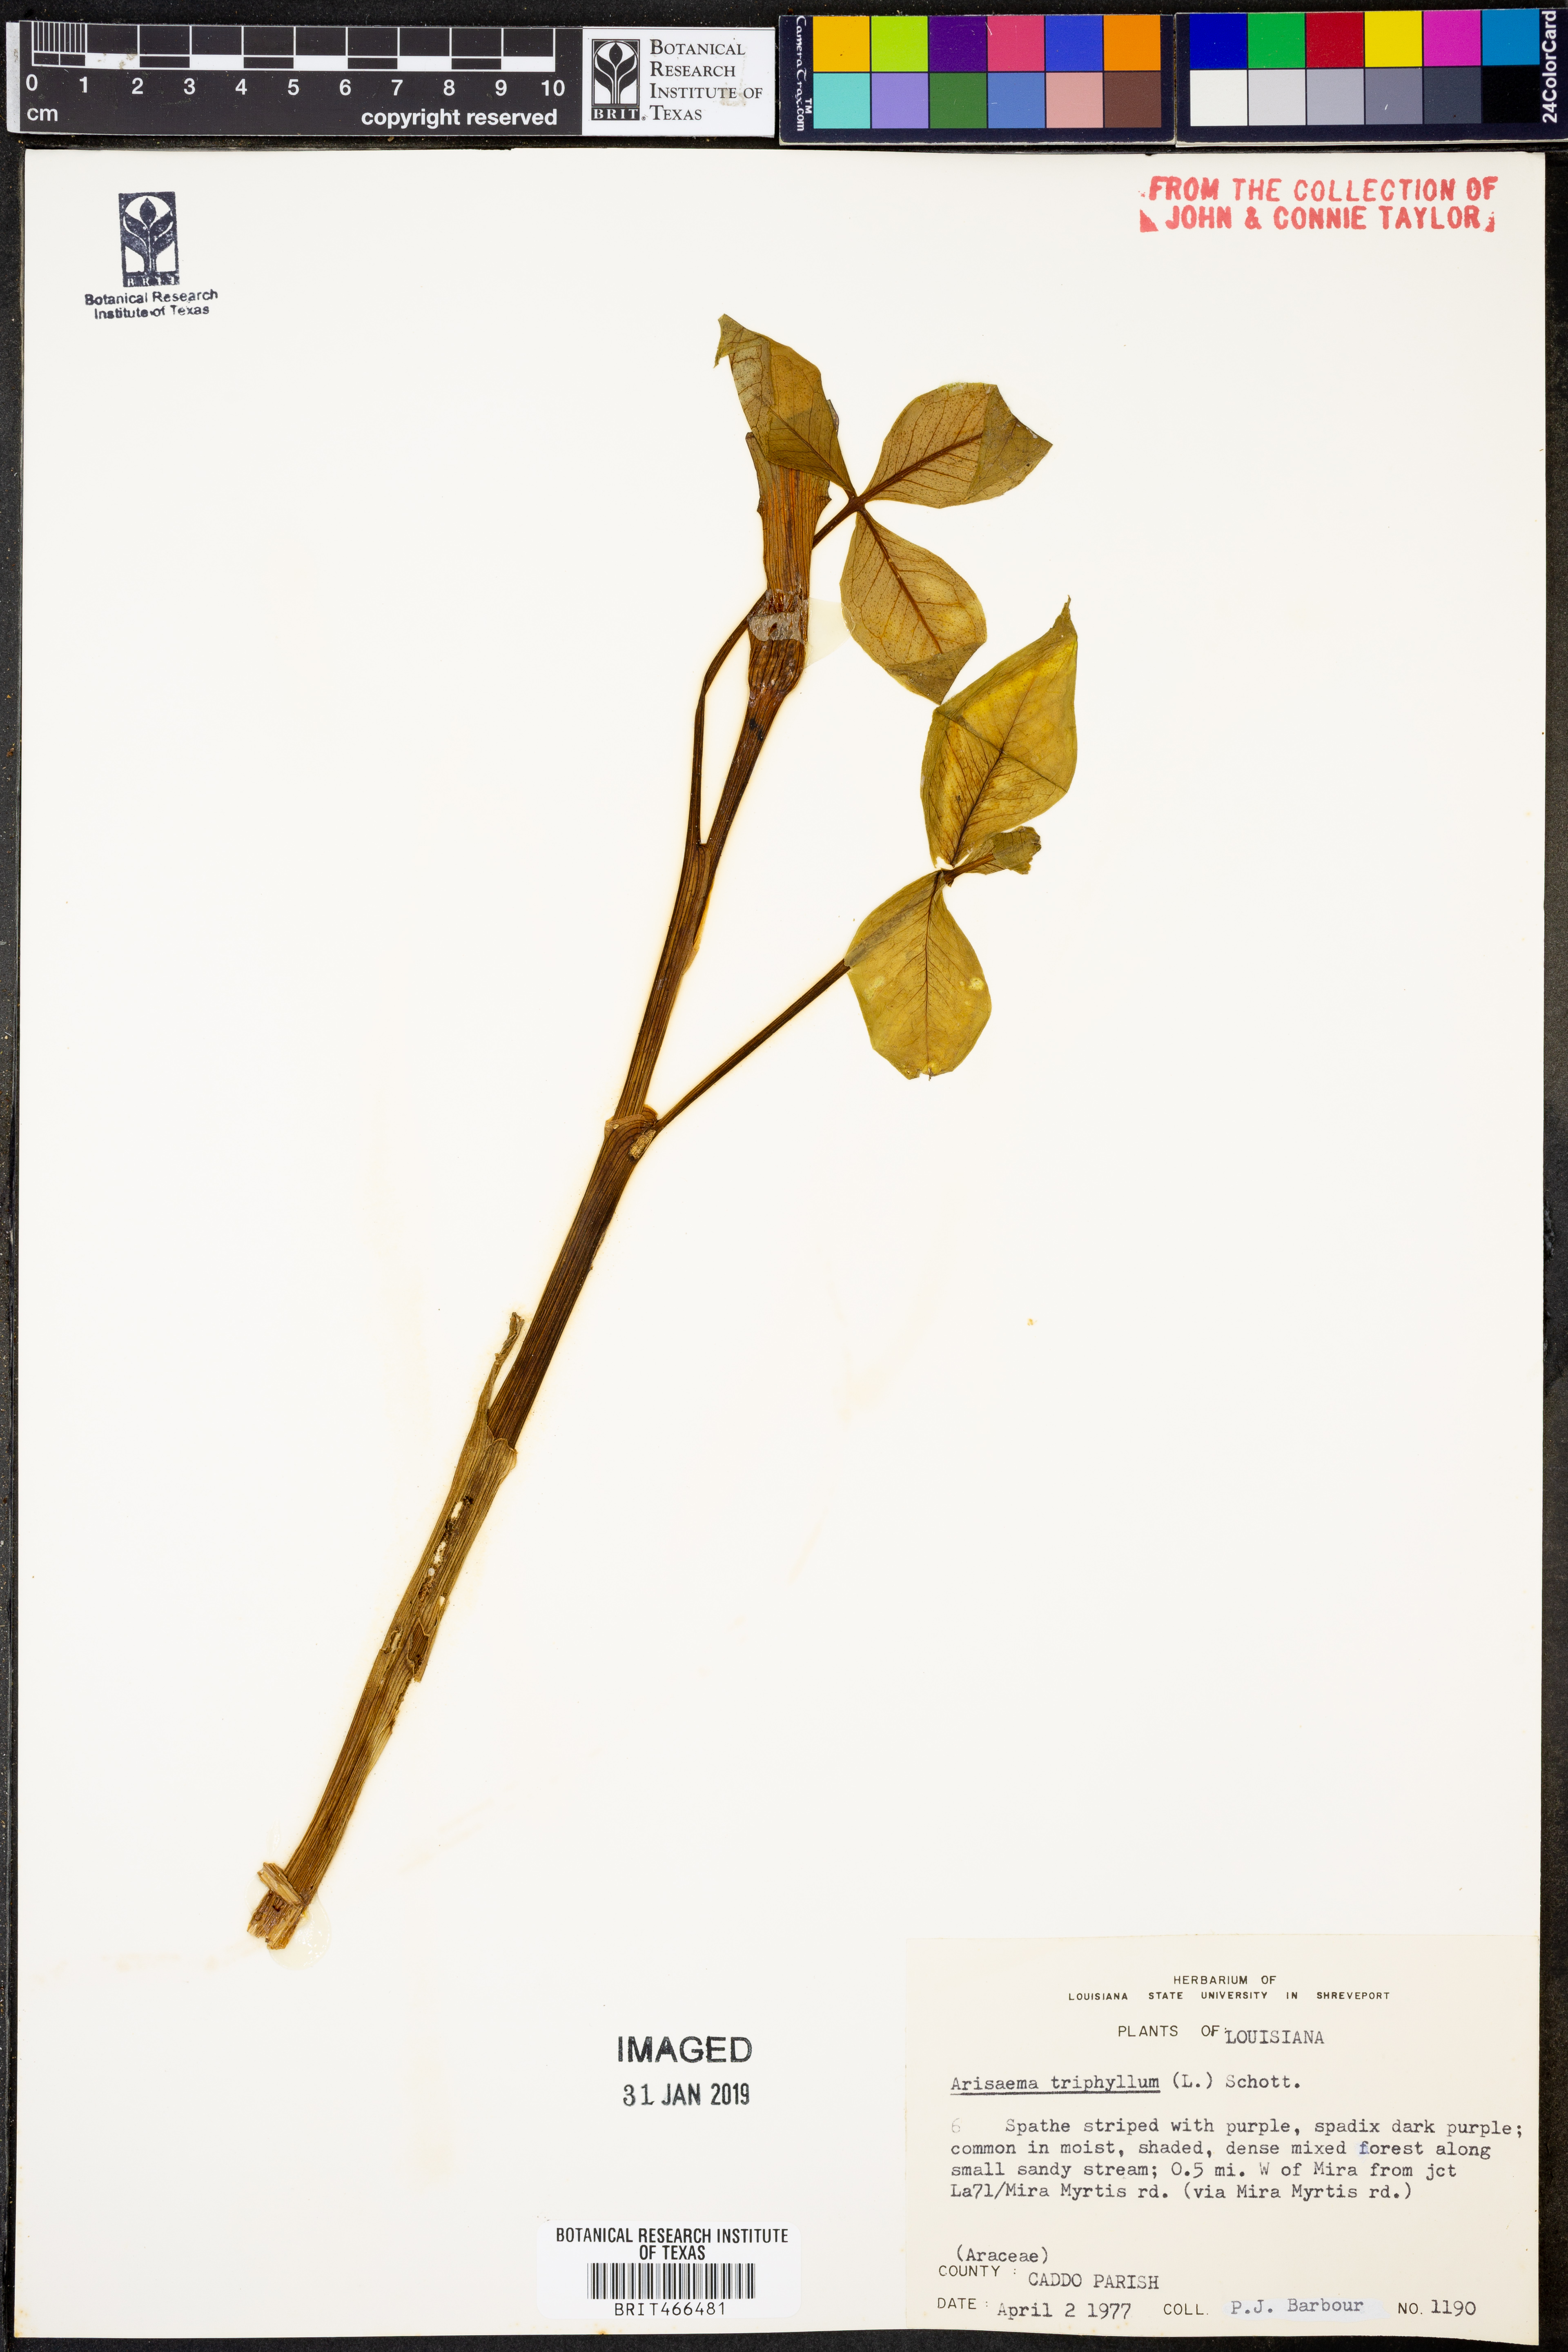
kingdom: Plantae
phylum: Tracheophyta
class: Liliopsida
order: Alismatales
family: Araceae
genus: Arisaema
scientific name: Arisaema triphyllum
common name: Jack-in-the-pulpit
